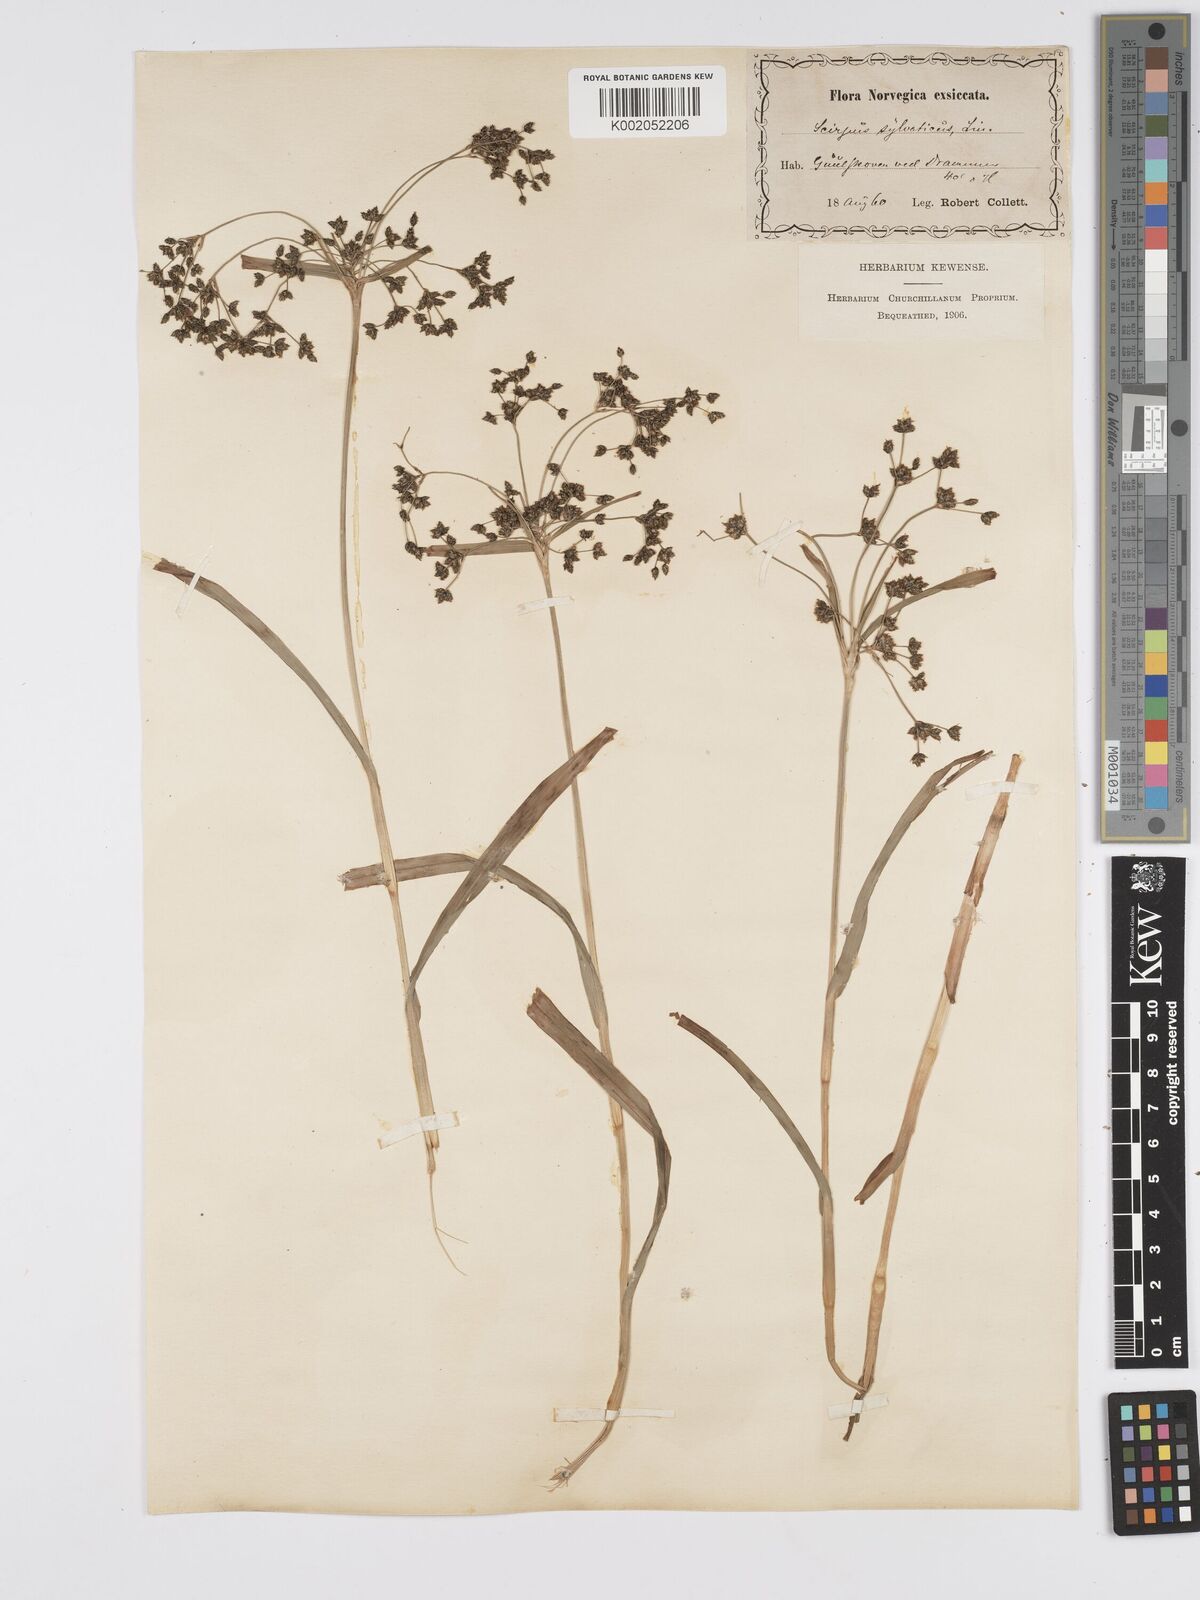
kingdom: Plantae
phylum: Tracheophyta
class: Liliopsida
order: Poales
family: Cyperaceae
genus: Scirpus
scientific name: Scirpus sylvaticus
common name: Wood club-rush
